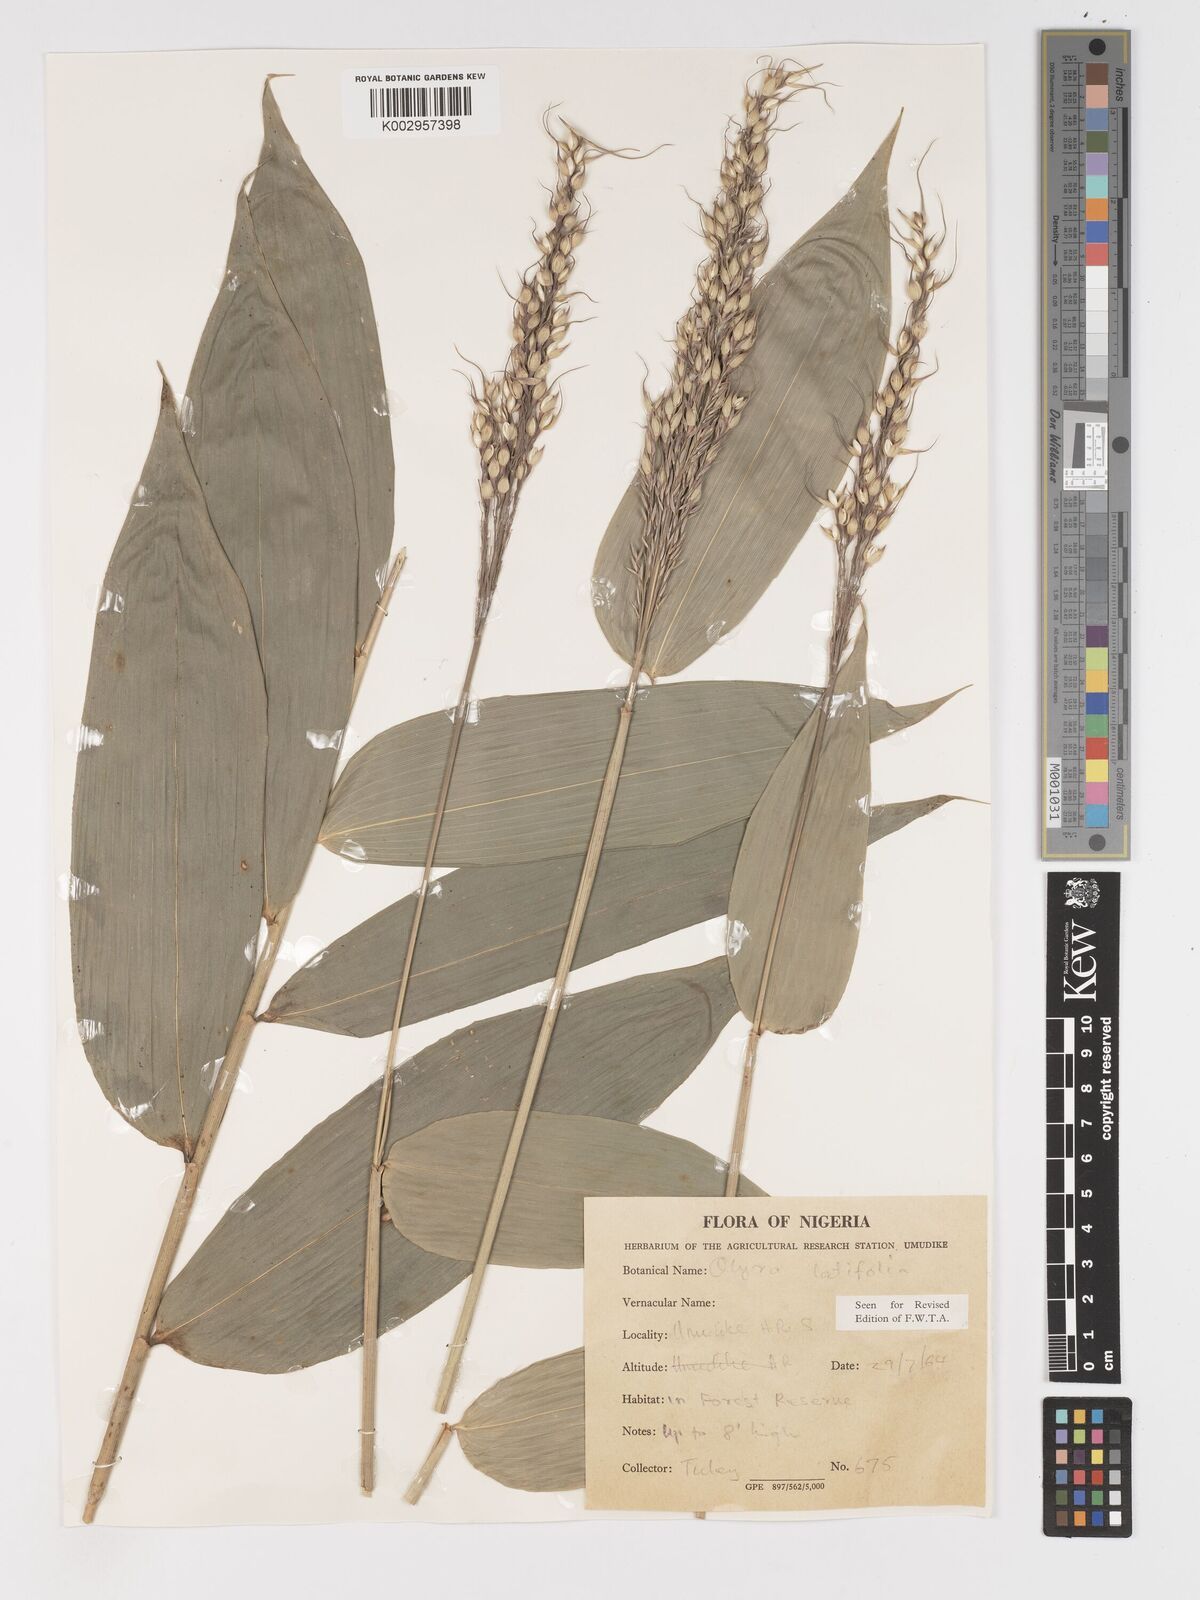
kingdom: Plantae
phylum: Tracheophyta
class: Liliopsida
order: Poales
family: Poaceae
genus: Olyra
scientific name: Olyra latifolia
